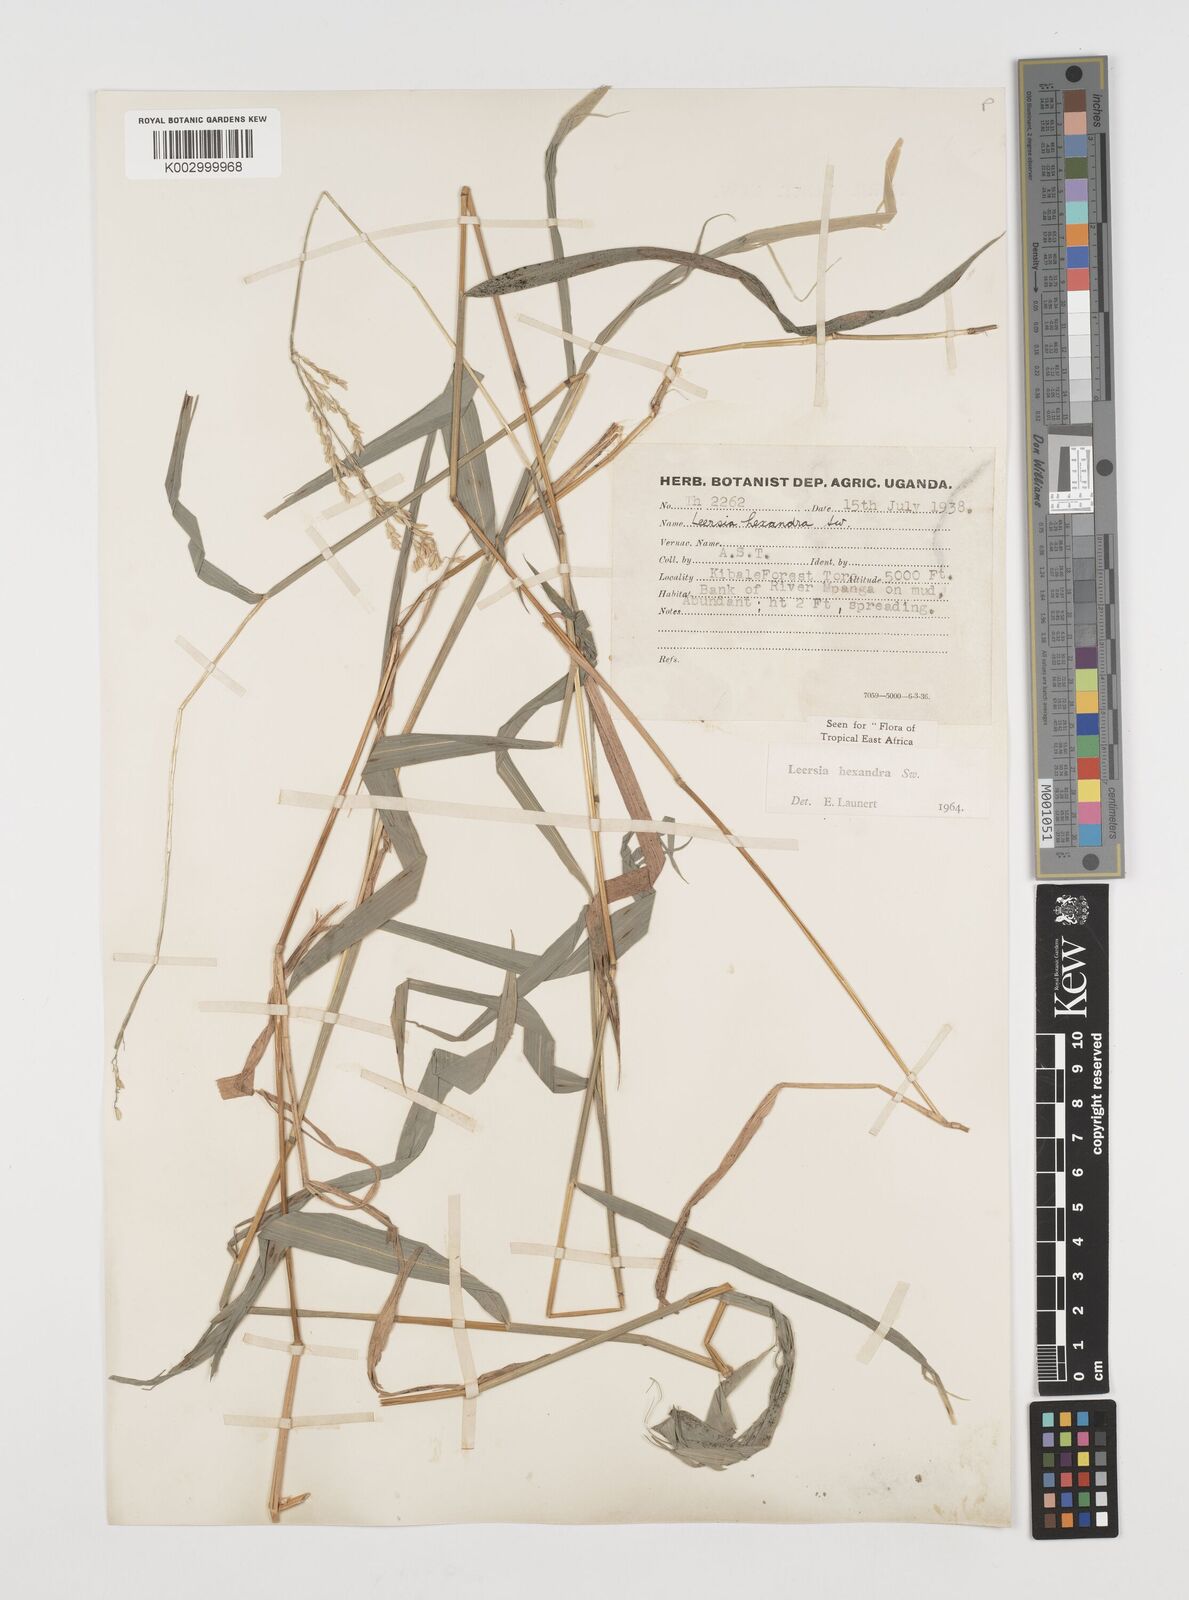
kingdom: Plantae
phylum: Tracheophyta
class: Liliopsida
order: Poales
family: Poaceae
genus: Leersia
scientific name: Leersia hexandra
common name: Southern cut grass
